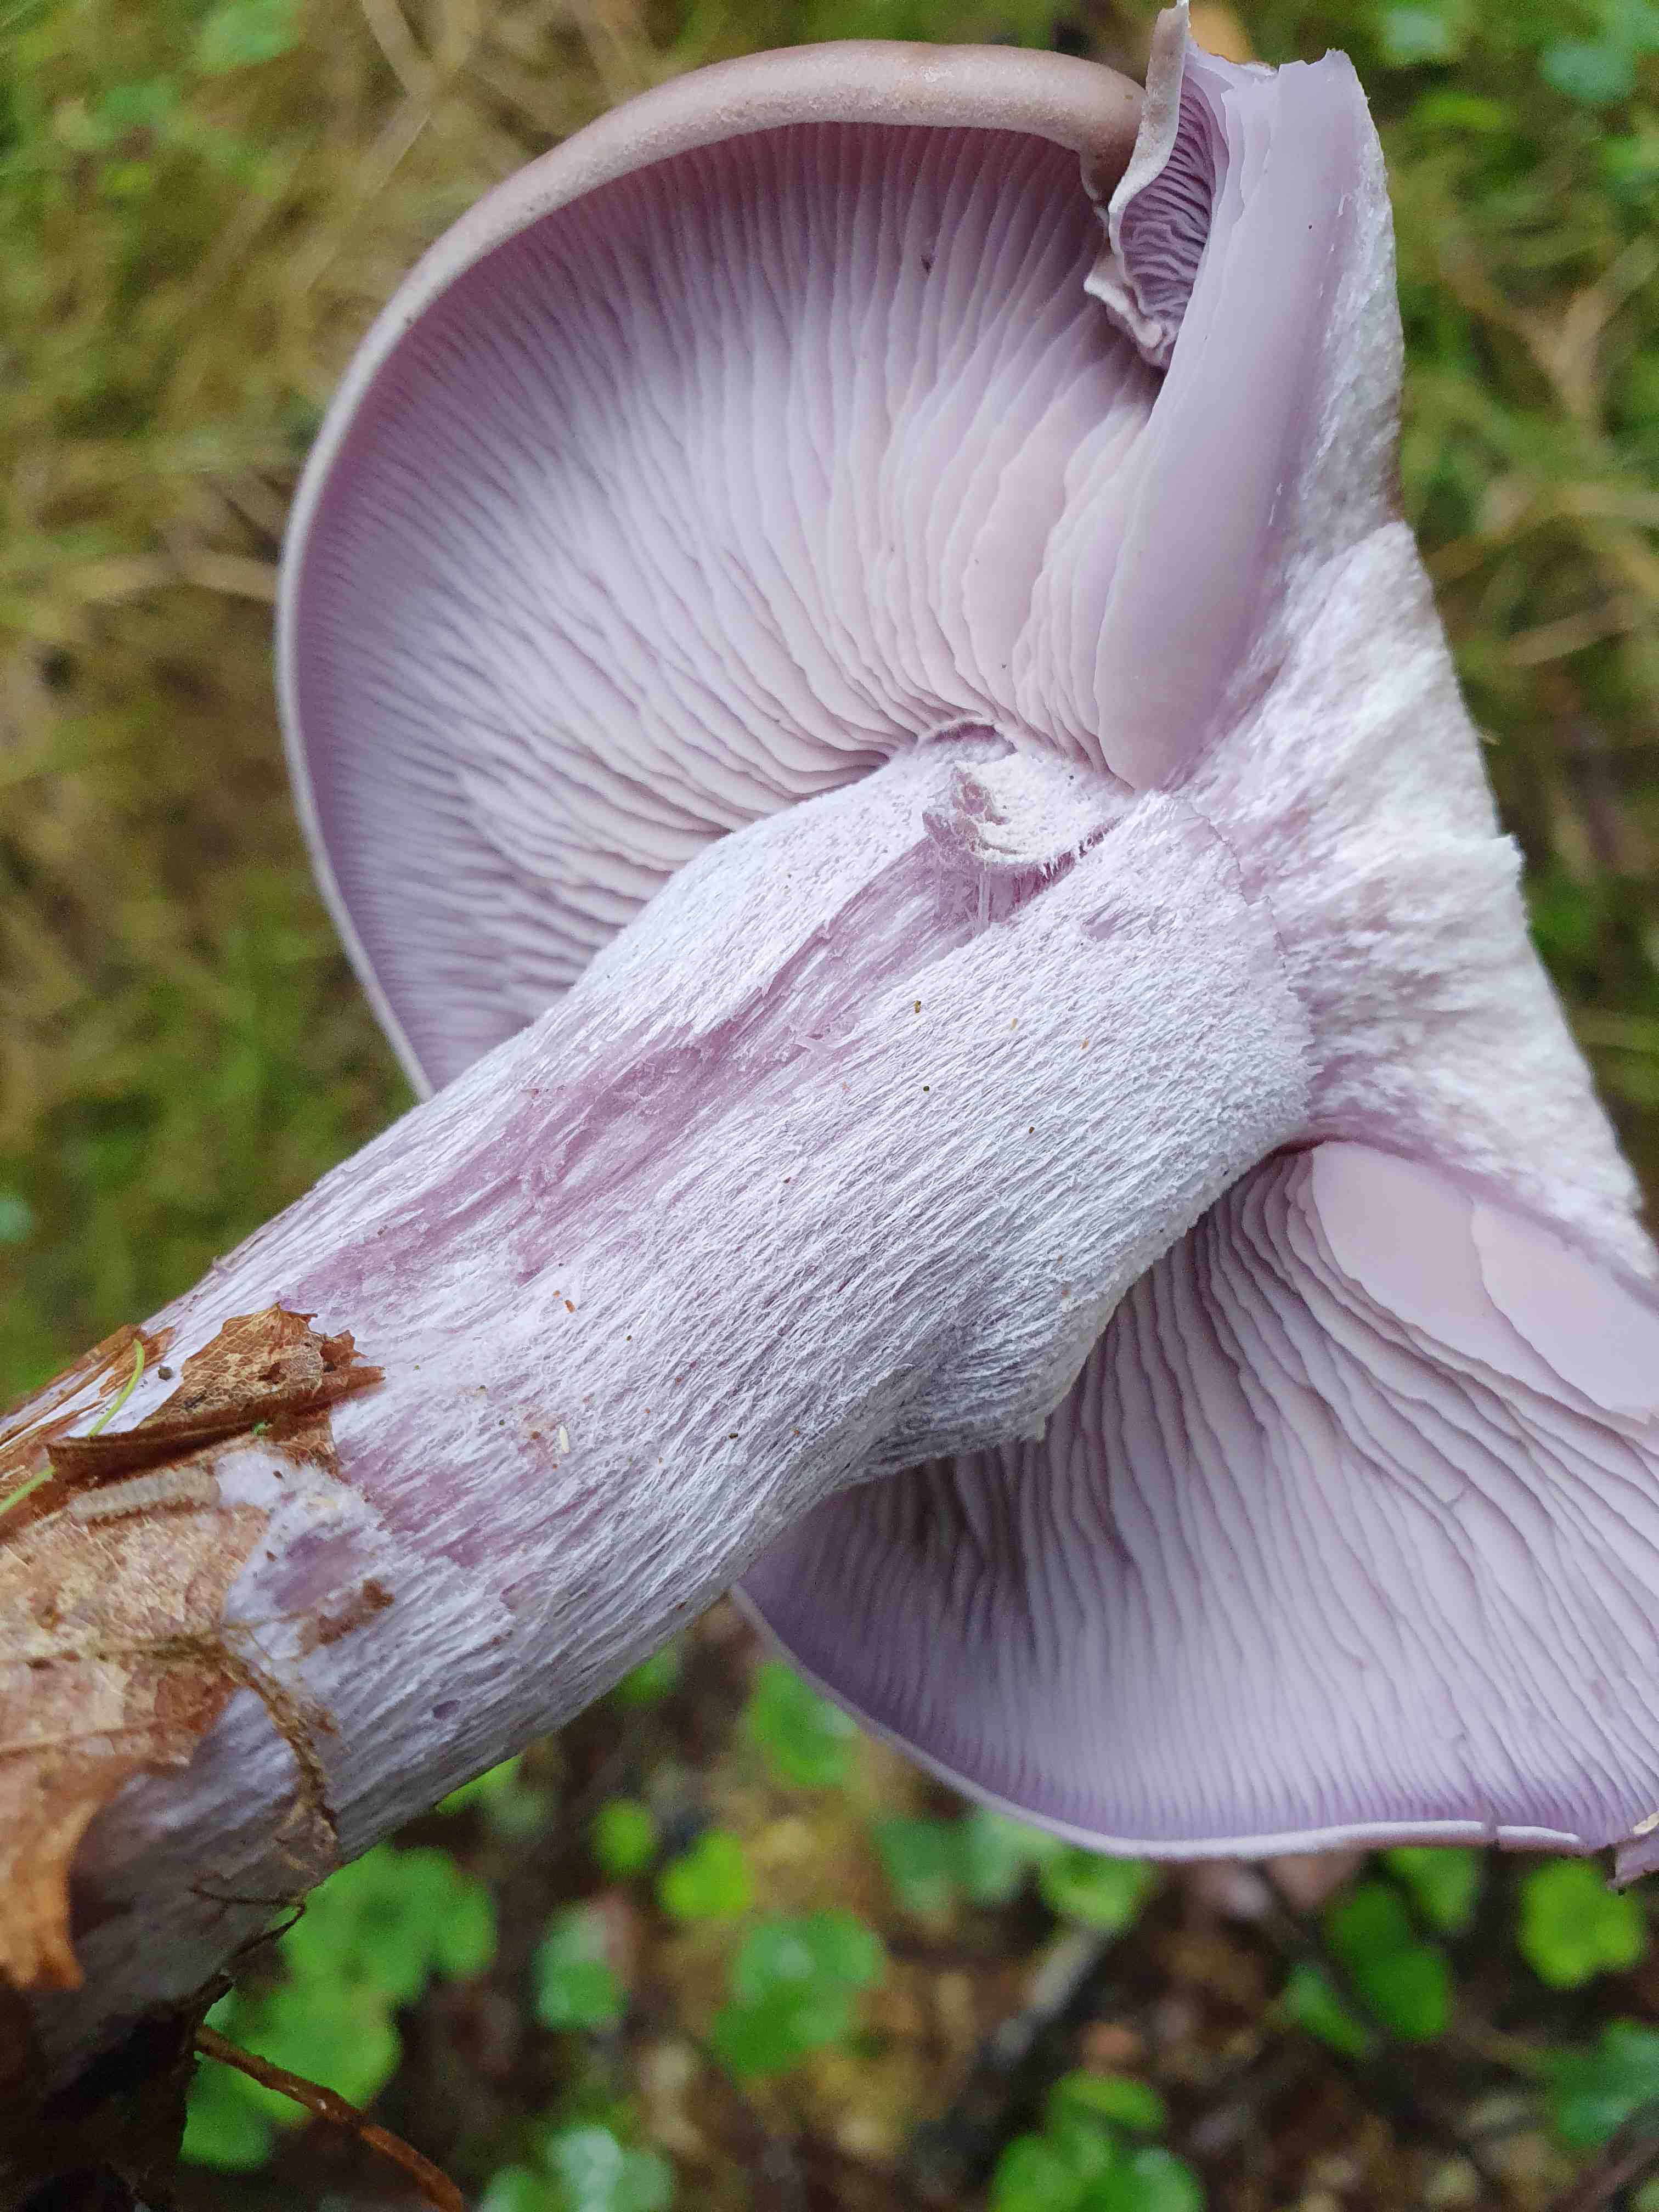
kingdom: Fungi
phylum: Basidiomycota
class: Agaricomycetes
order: Agaricales
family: Tricholomataceae
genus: Lepista
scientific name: Lepista nuda
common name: violet hekseringshat
